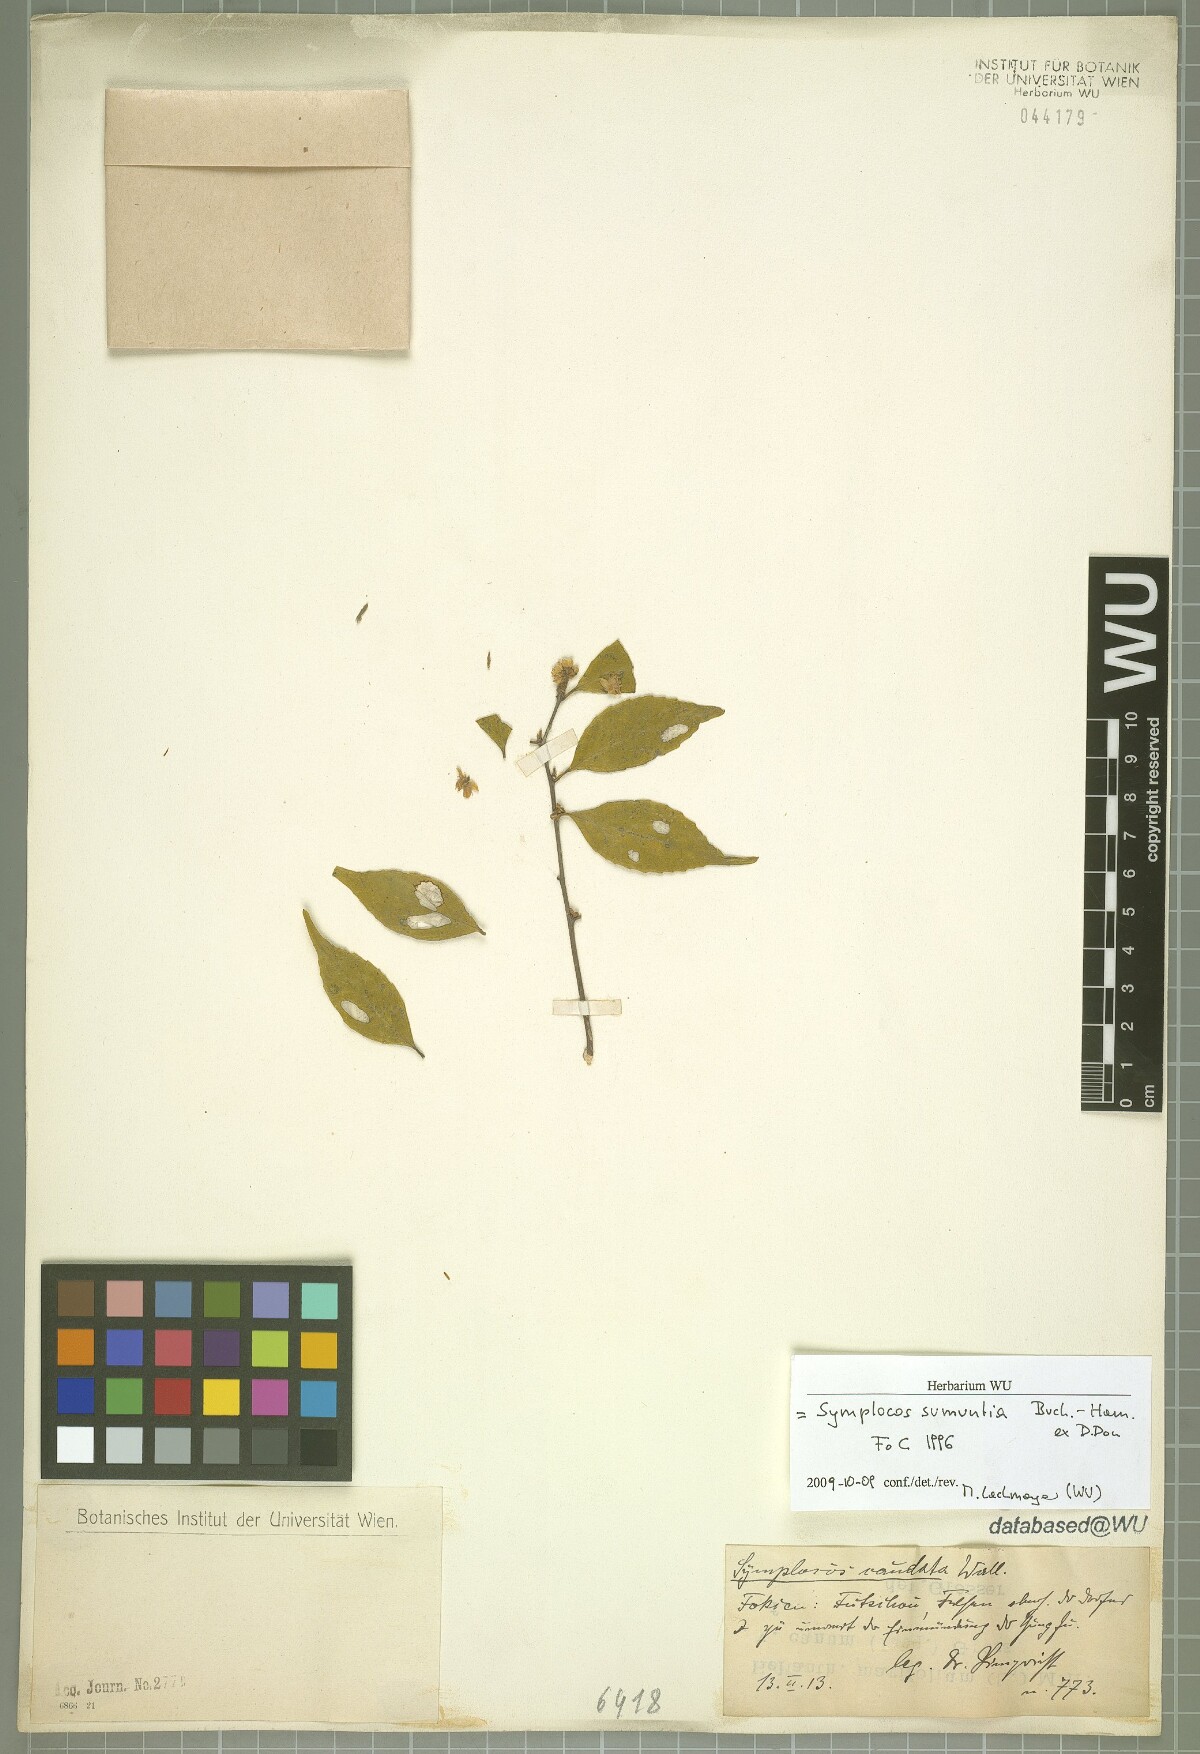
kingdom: Plantae
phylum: Tracheophyta
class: Magnoliopsida
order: Ericales
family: Symplocaceae
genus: Symplocos
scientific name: Symplocos sumuntia
